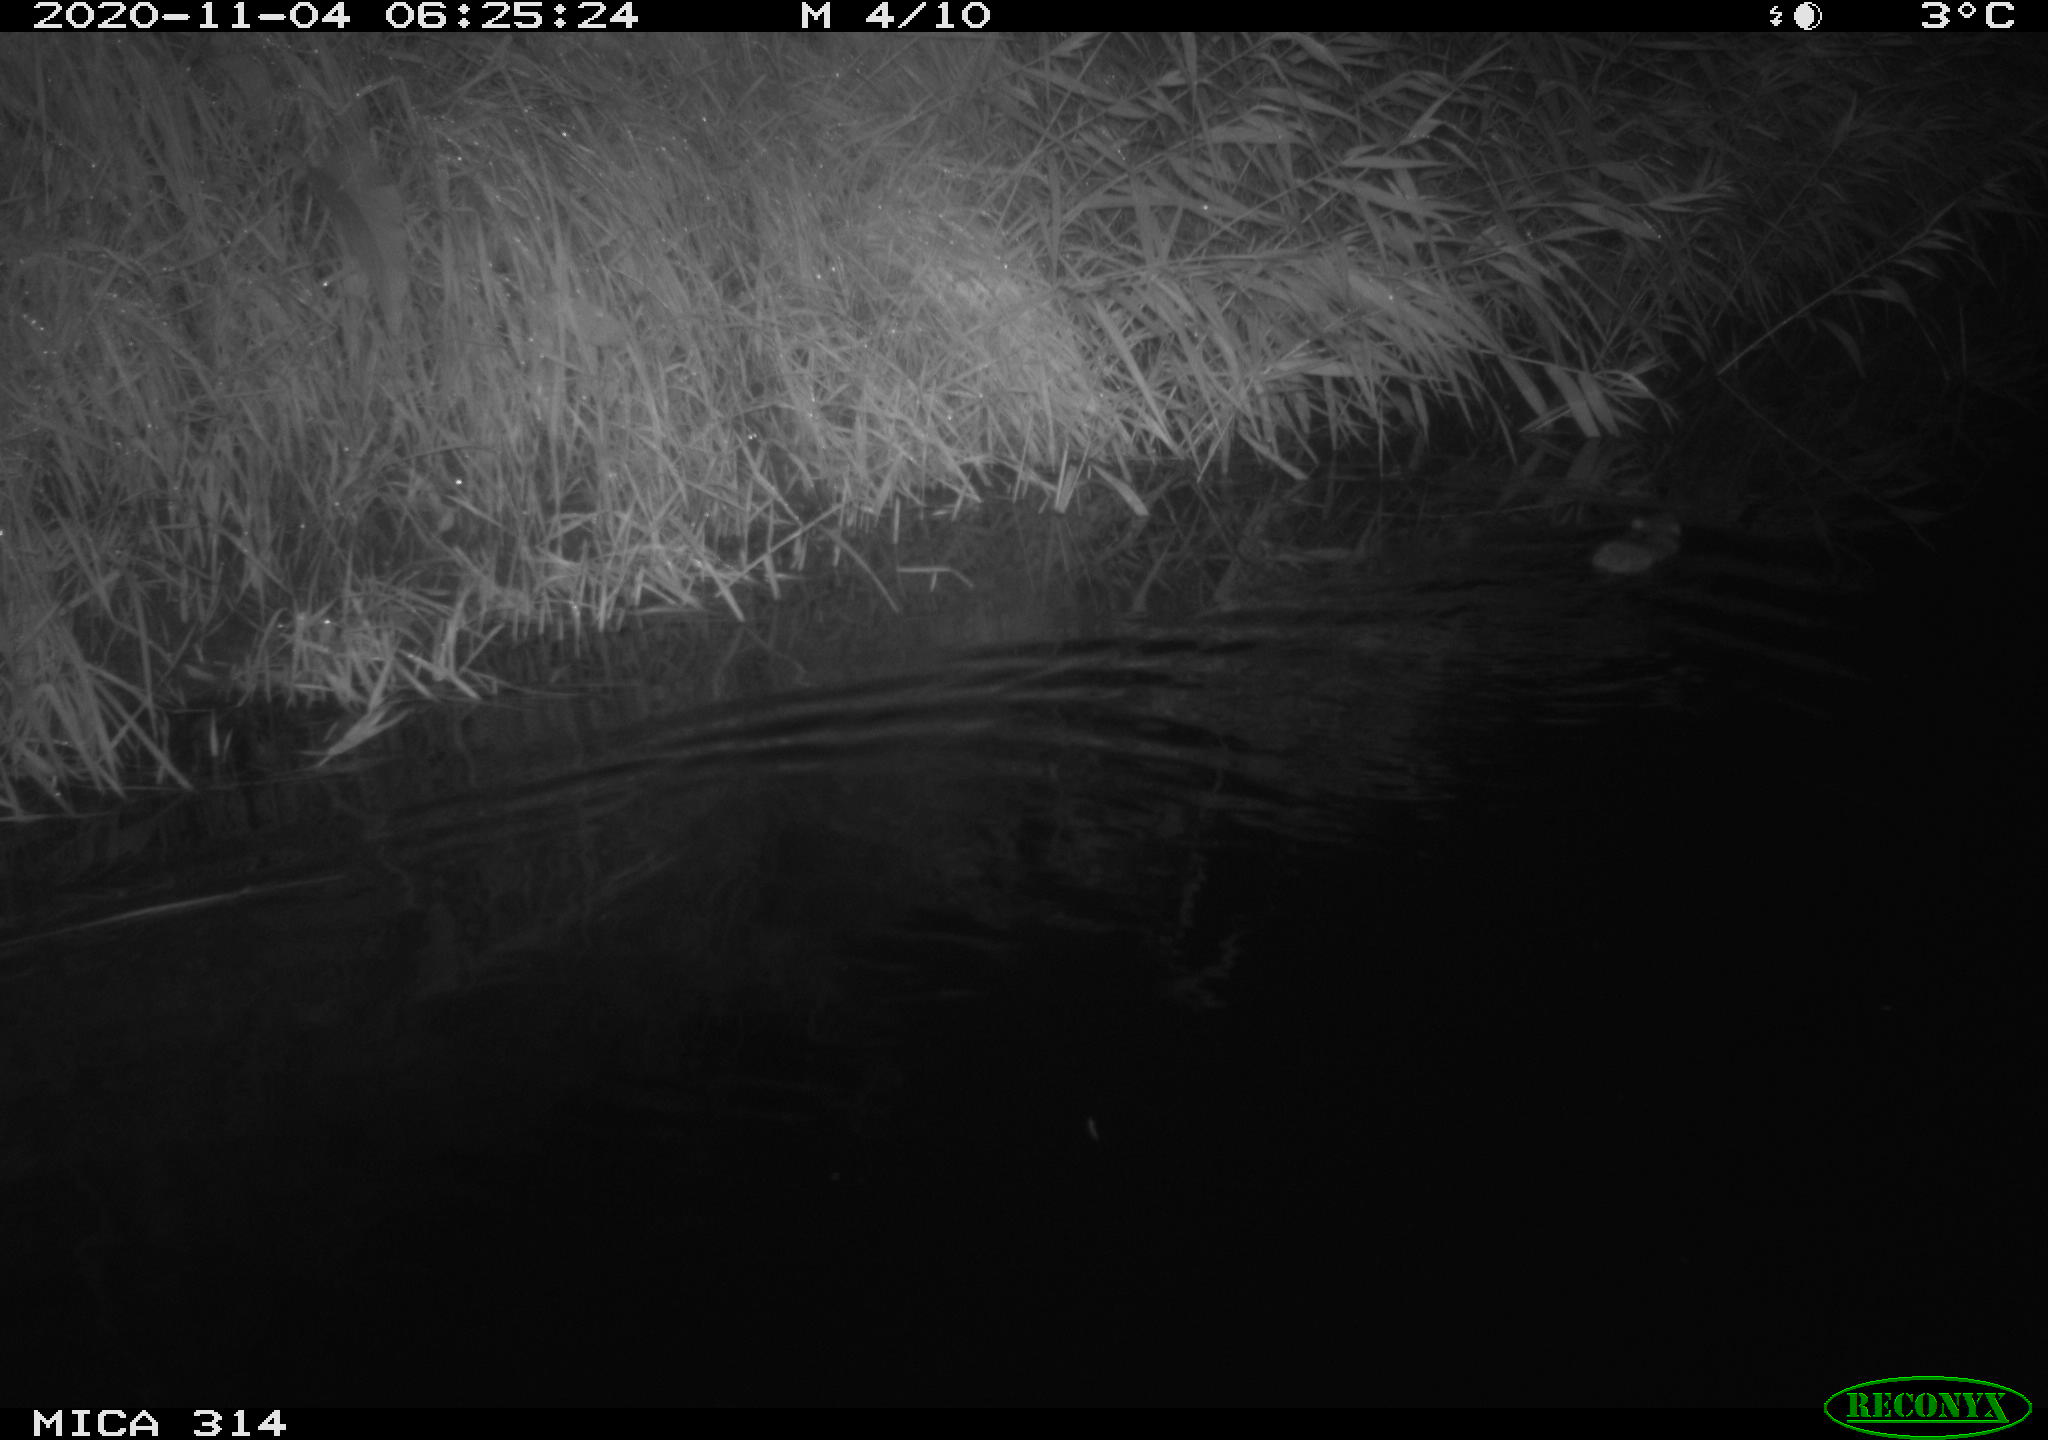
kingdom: Animalia
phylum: Chordata
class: Mammalia
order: Rodentia
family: Muridae
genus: Rattus
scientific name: Rattus norvegicus
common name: Brown rat
